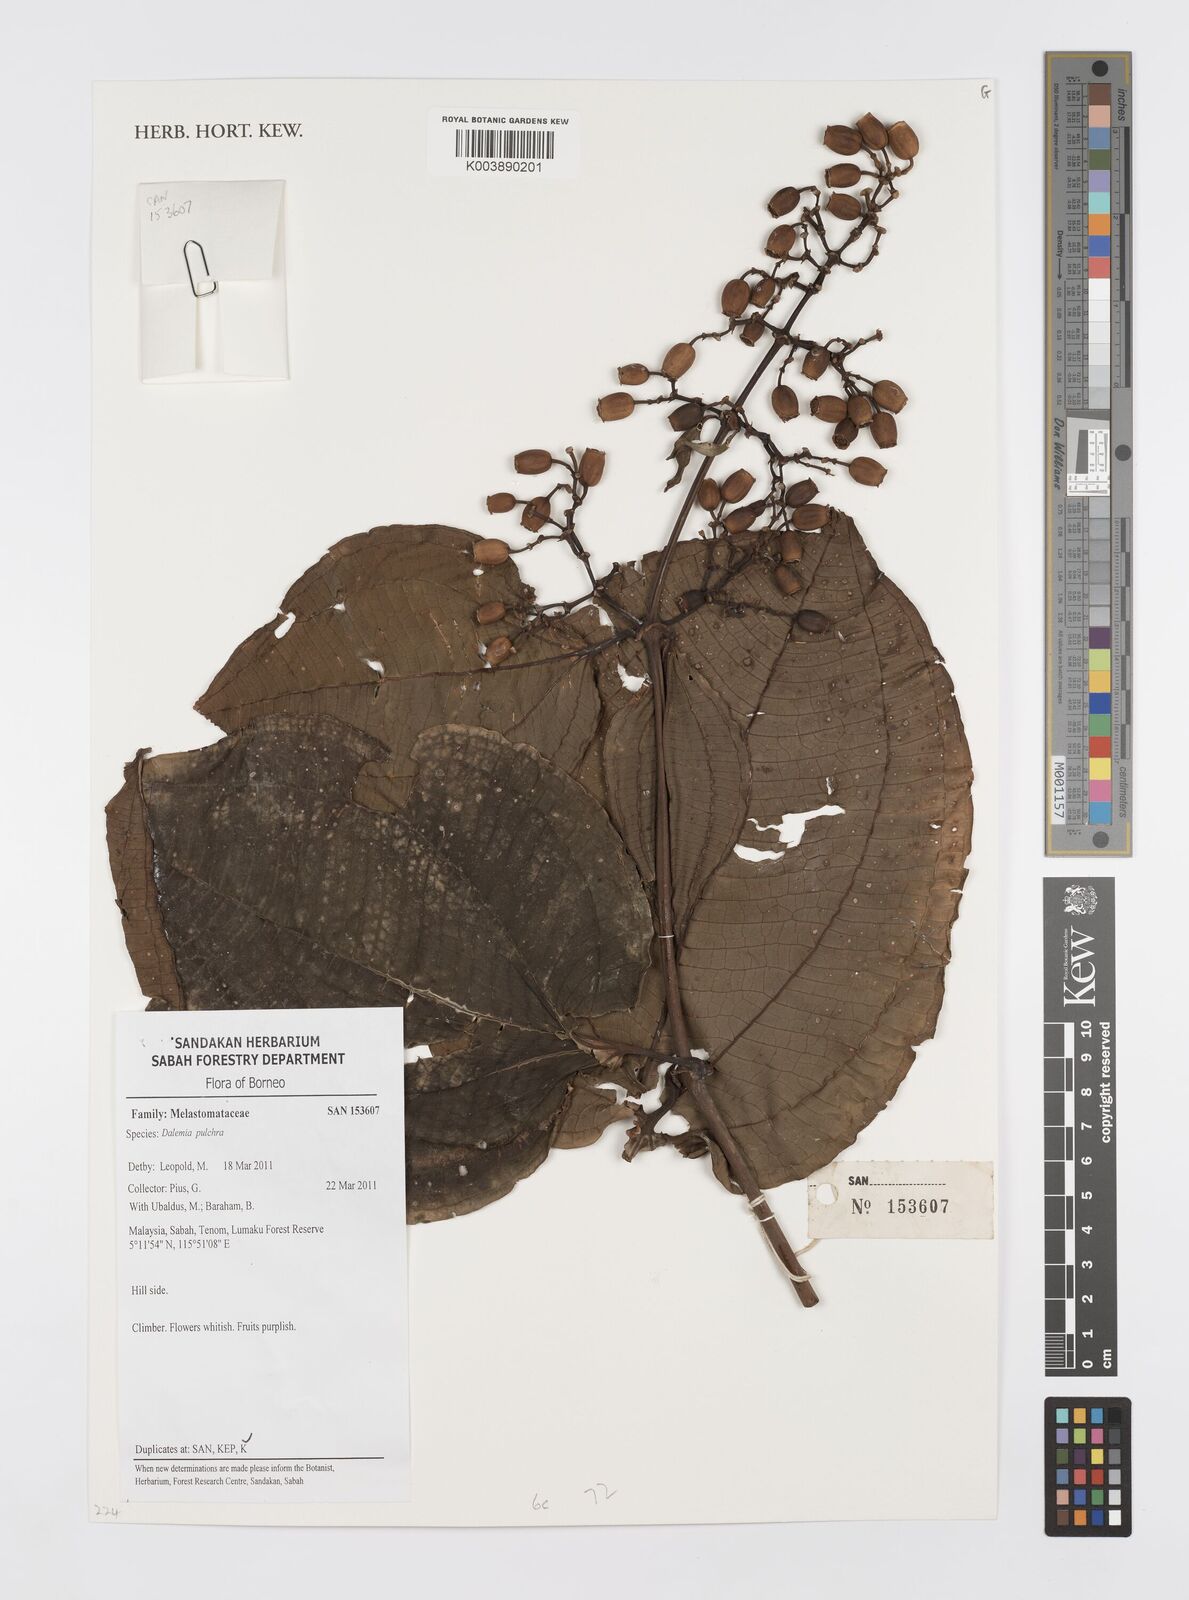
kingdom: Plantae
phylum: Tracheophyta
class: Magnoliopsida
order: Myrtales
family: Melastomataceae
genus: Dalenia
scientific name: Dalenia pulchra
